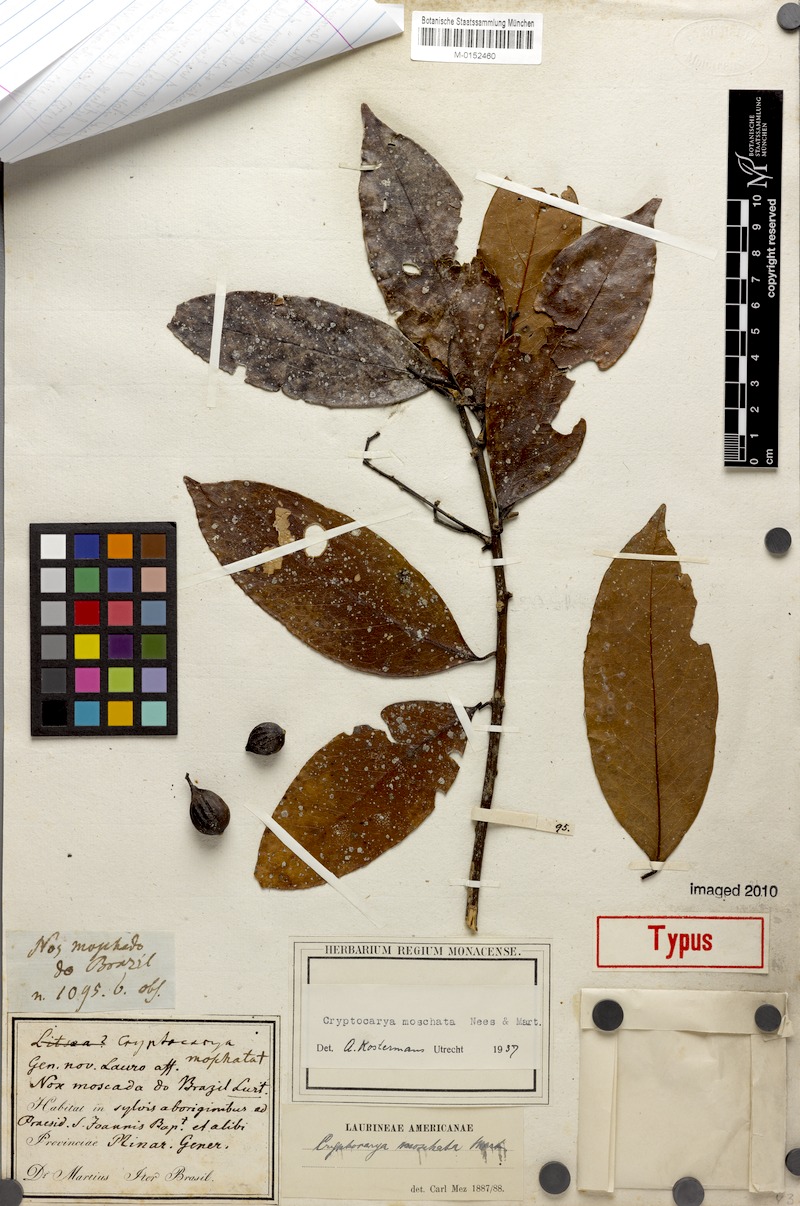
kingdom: Plantae
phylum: Tracheophyta
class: Magnoliopsida
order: Laurales
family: Lauraceae
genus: Cryptocarya
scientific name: Cryptocarya moschata
